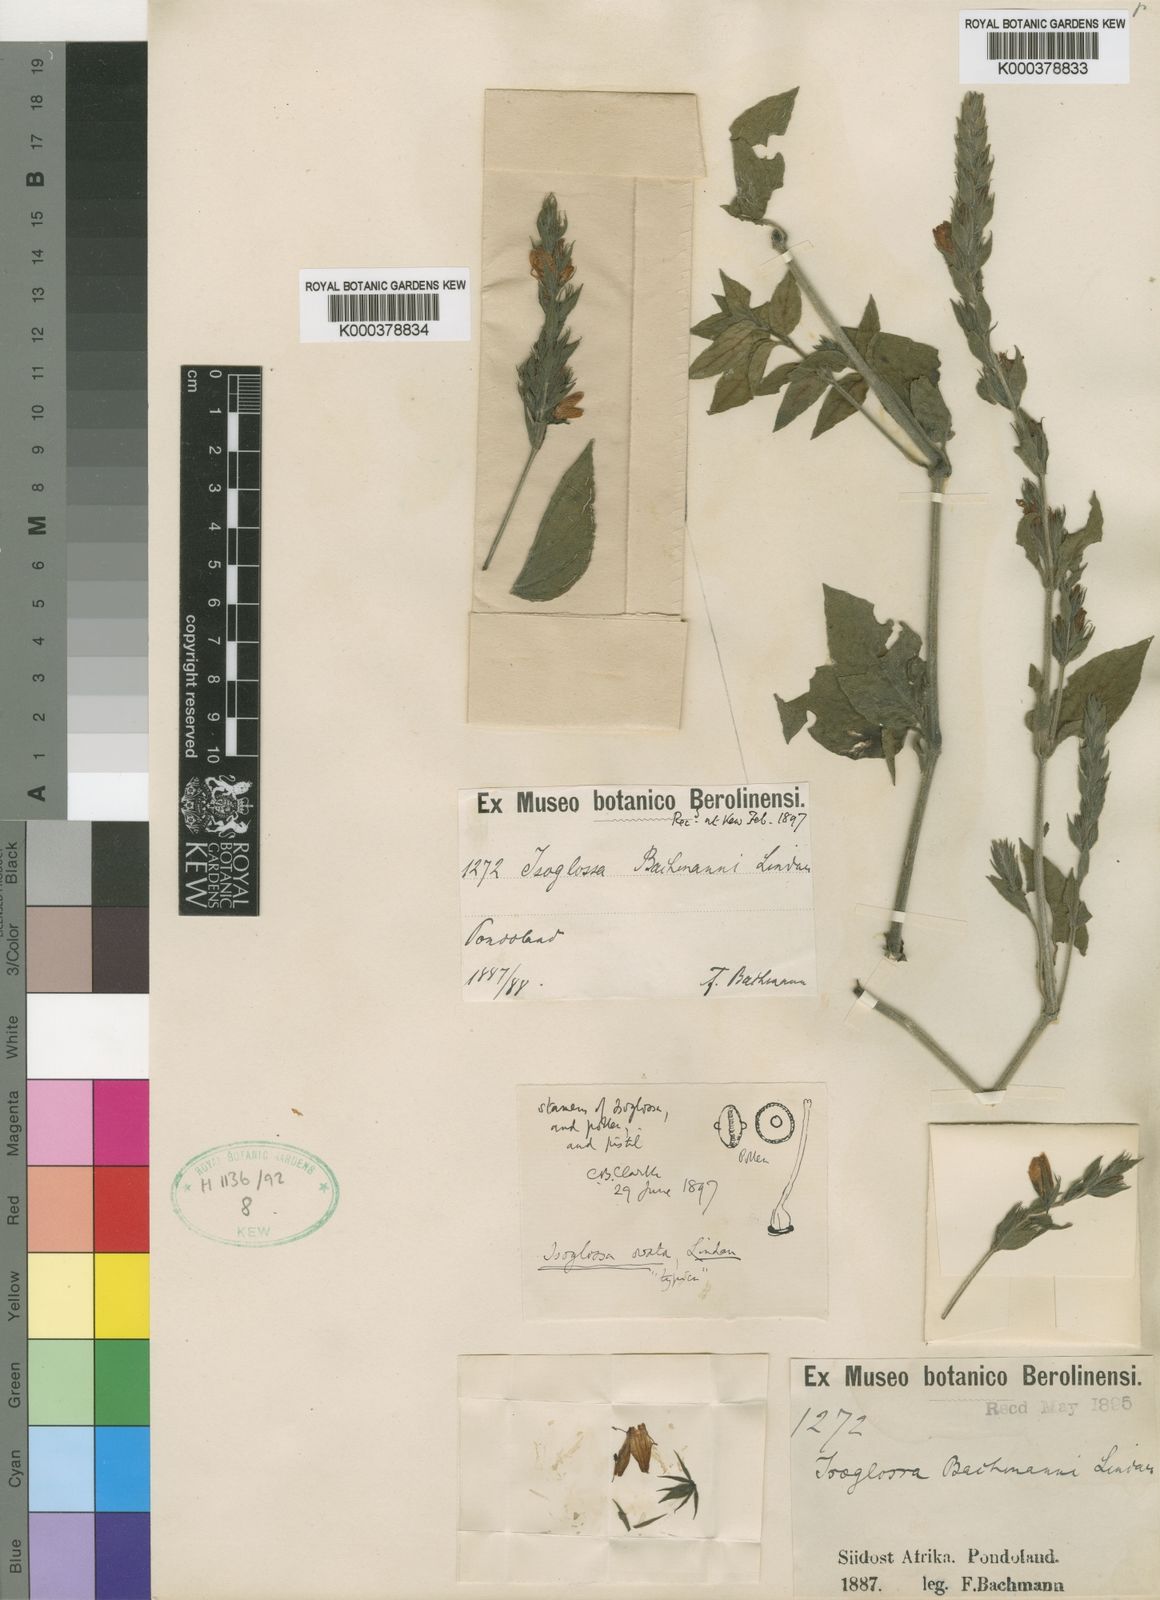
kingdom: Plantae
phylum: Tracheophyta
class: Magnoliopsida
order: Lamiales
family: Acanthaceae
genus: Isoglossa
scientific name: Isoglossa ovata
